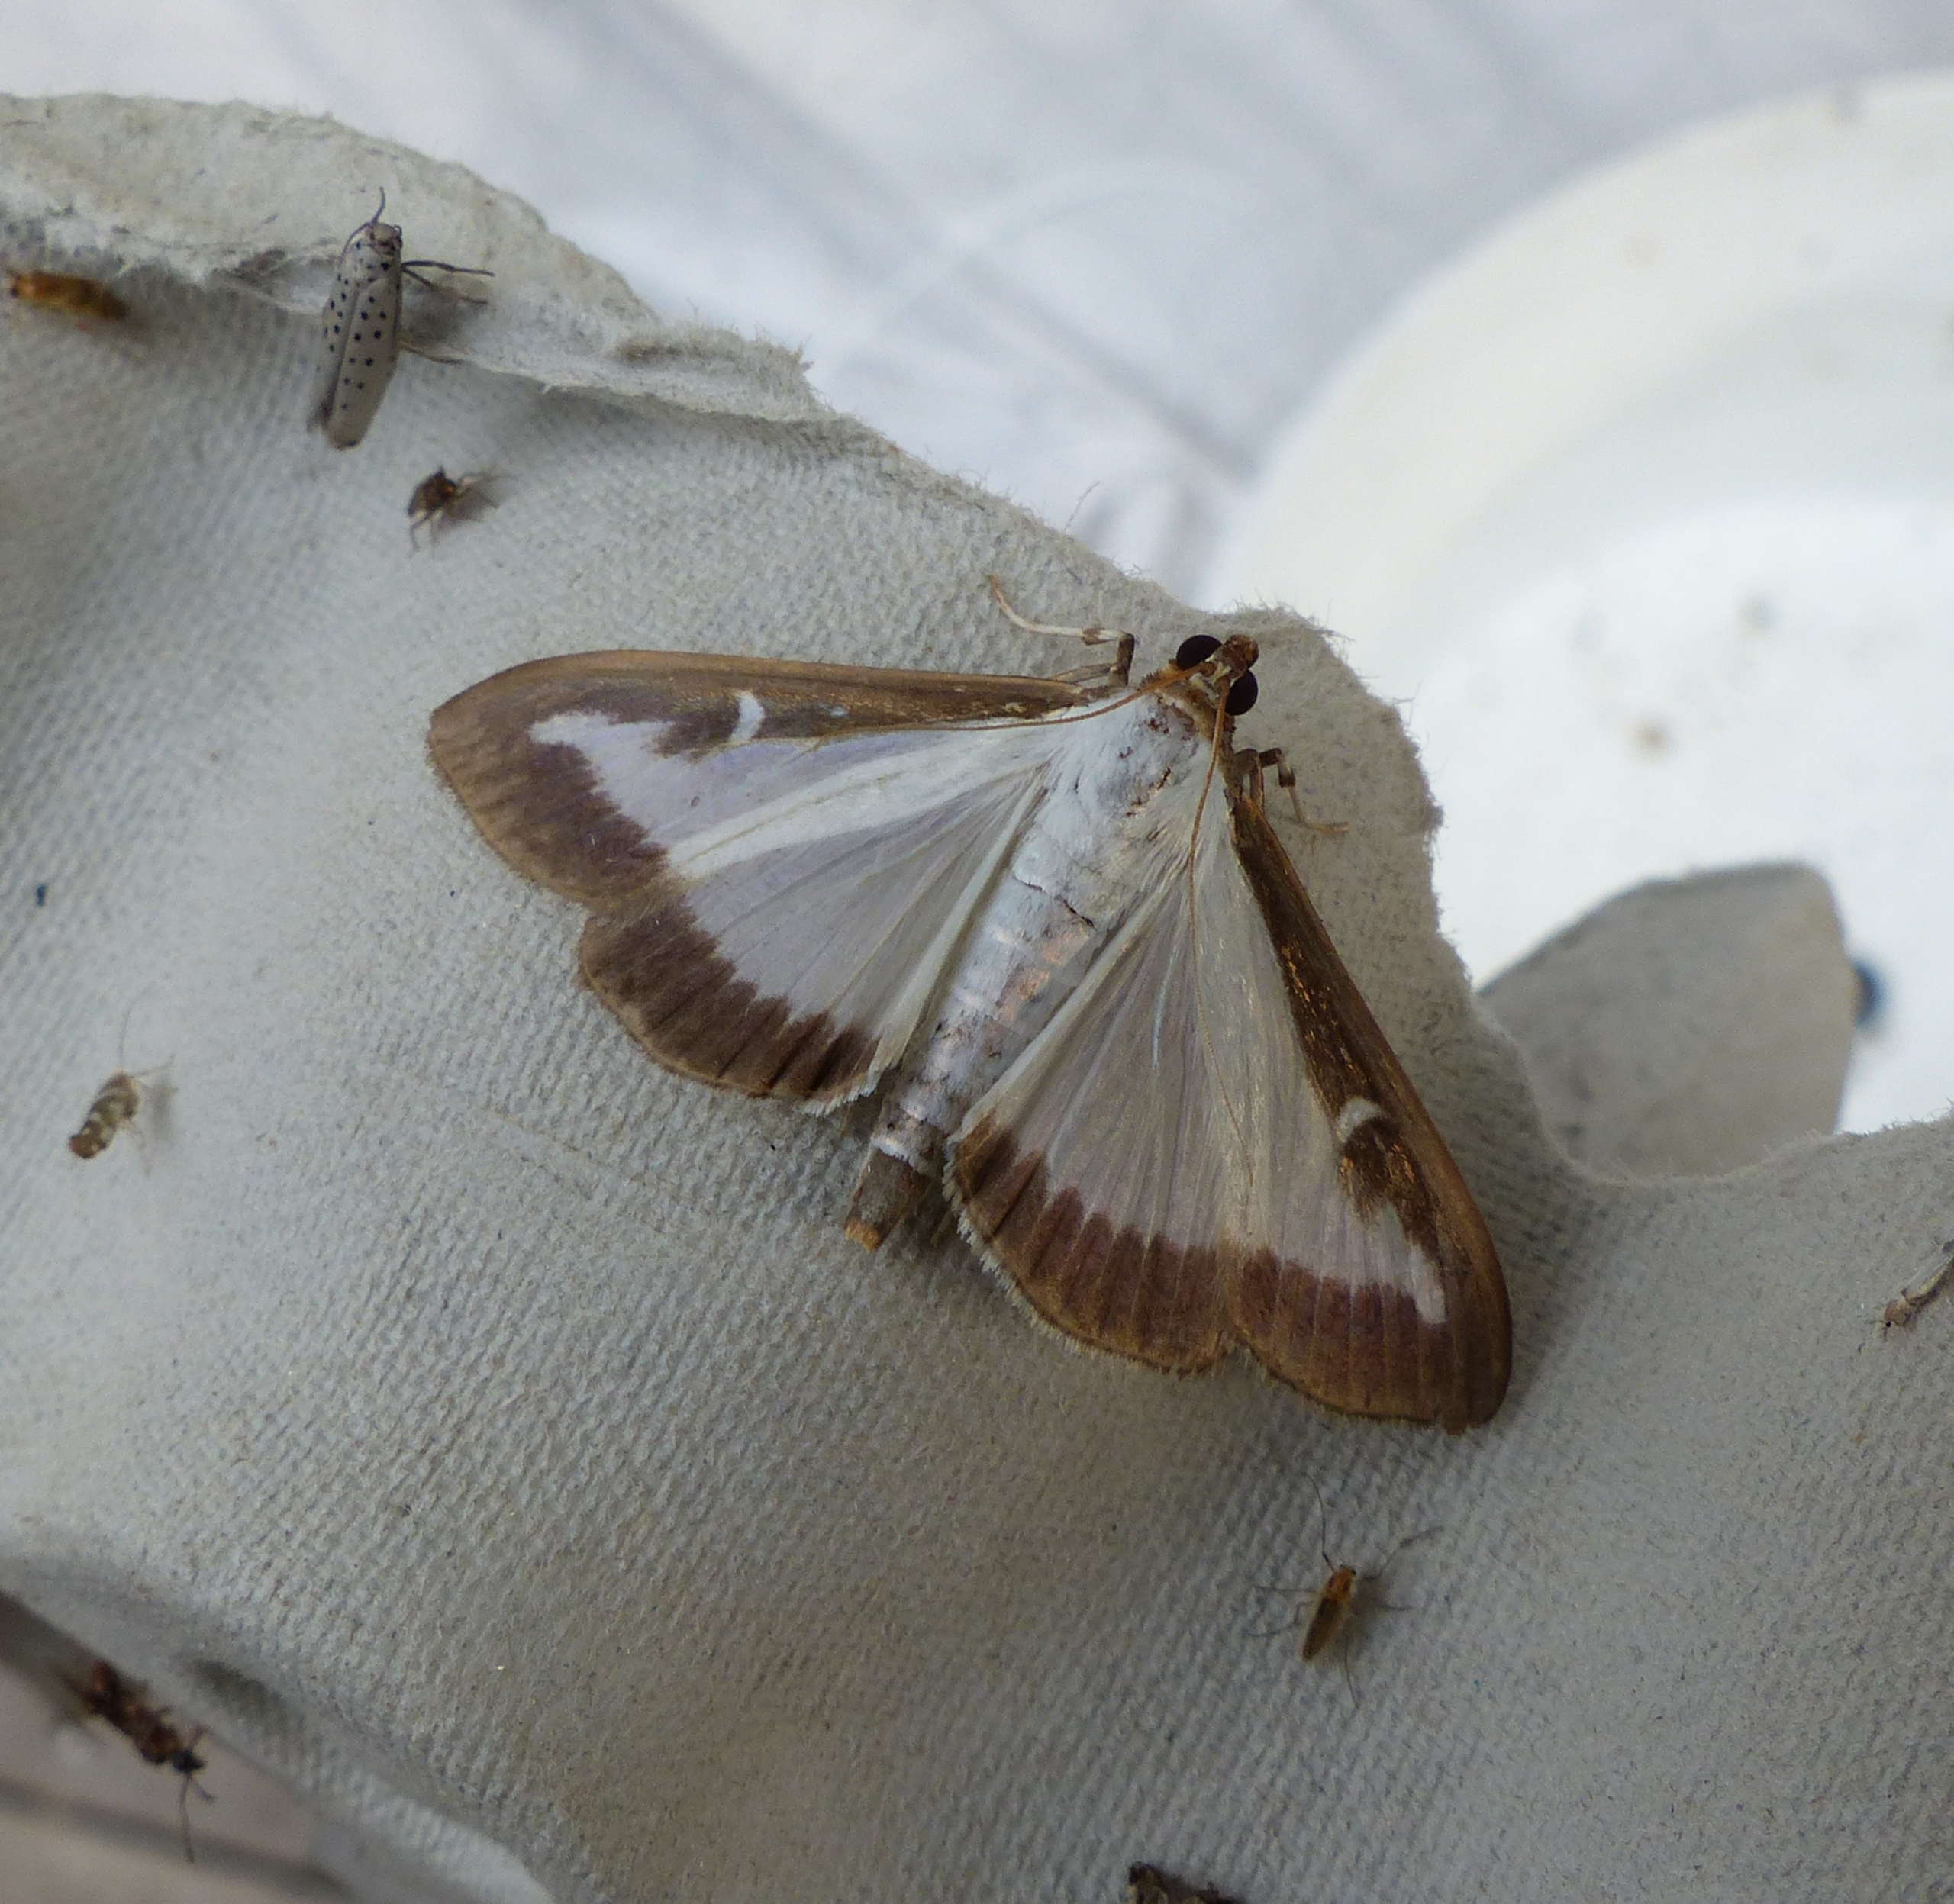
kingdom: Animalia
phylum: Arthropoda
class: Insecta
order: Lepidoptera
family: Crambidae
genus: Cydalima
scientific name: Cydalima perspectalis
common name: Buksbomhalvmøl
